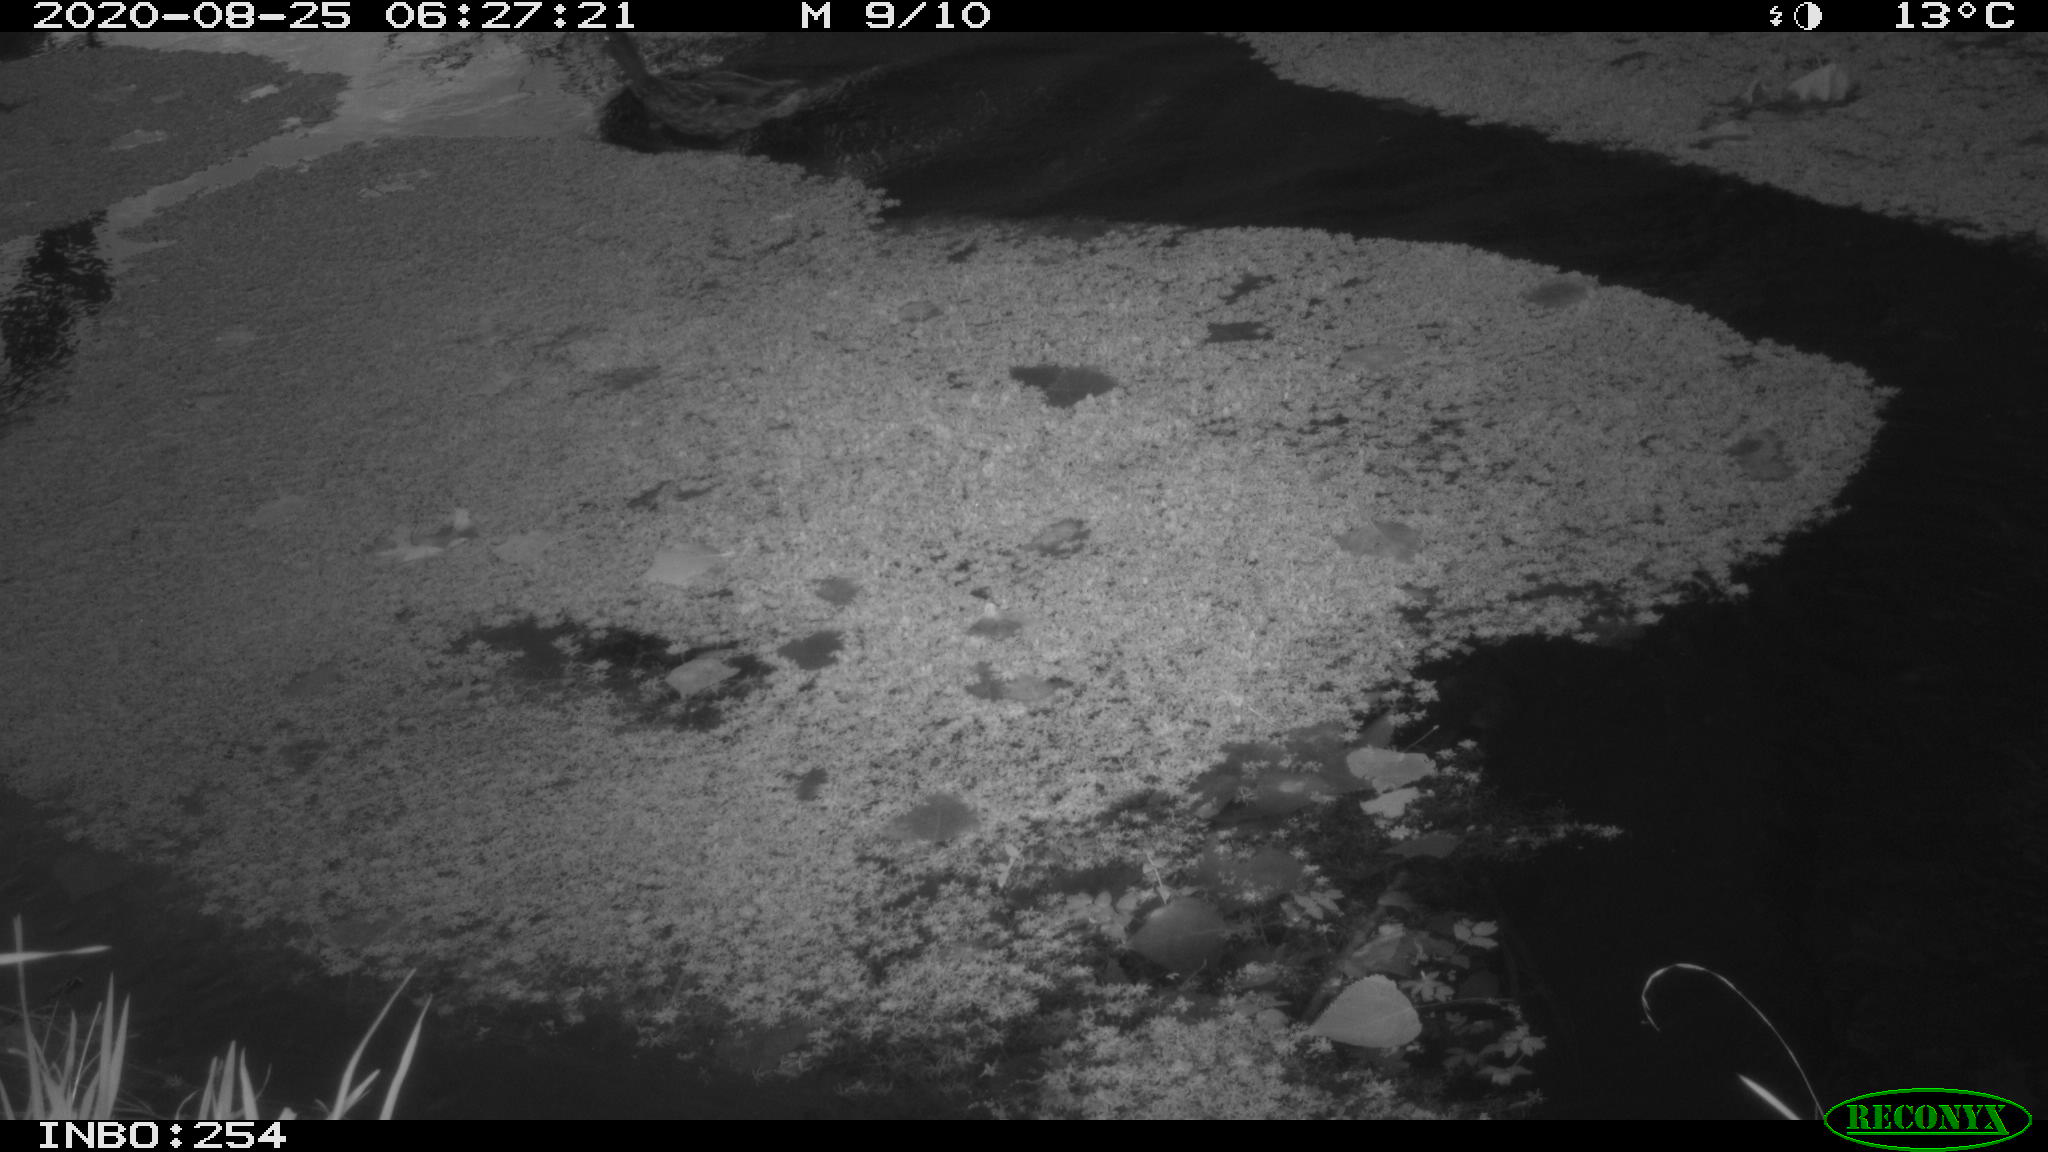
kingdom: Animalia
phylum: Chordata
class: Aves
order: Anseriformes
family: Anatidae
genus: Anas
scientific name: Anas platyrhynchos
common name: Mallard
